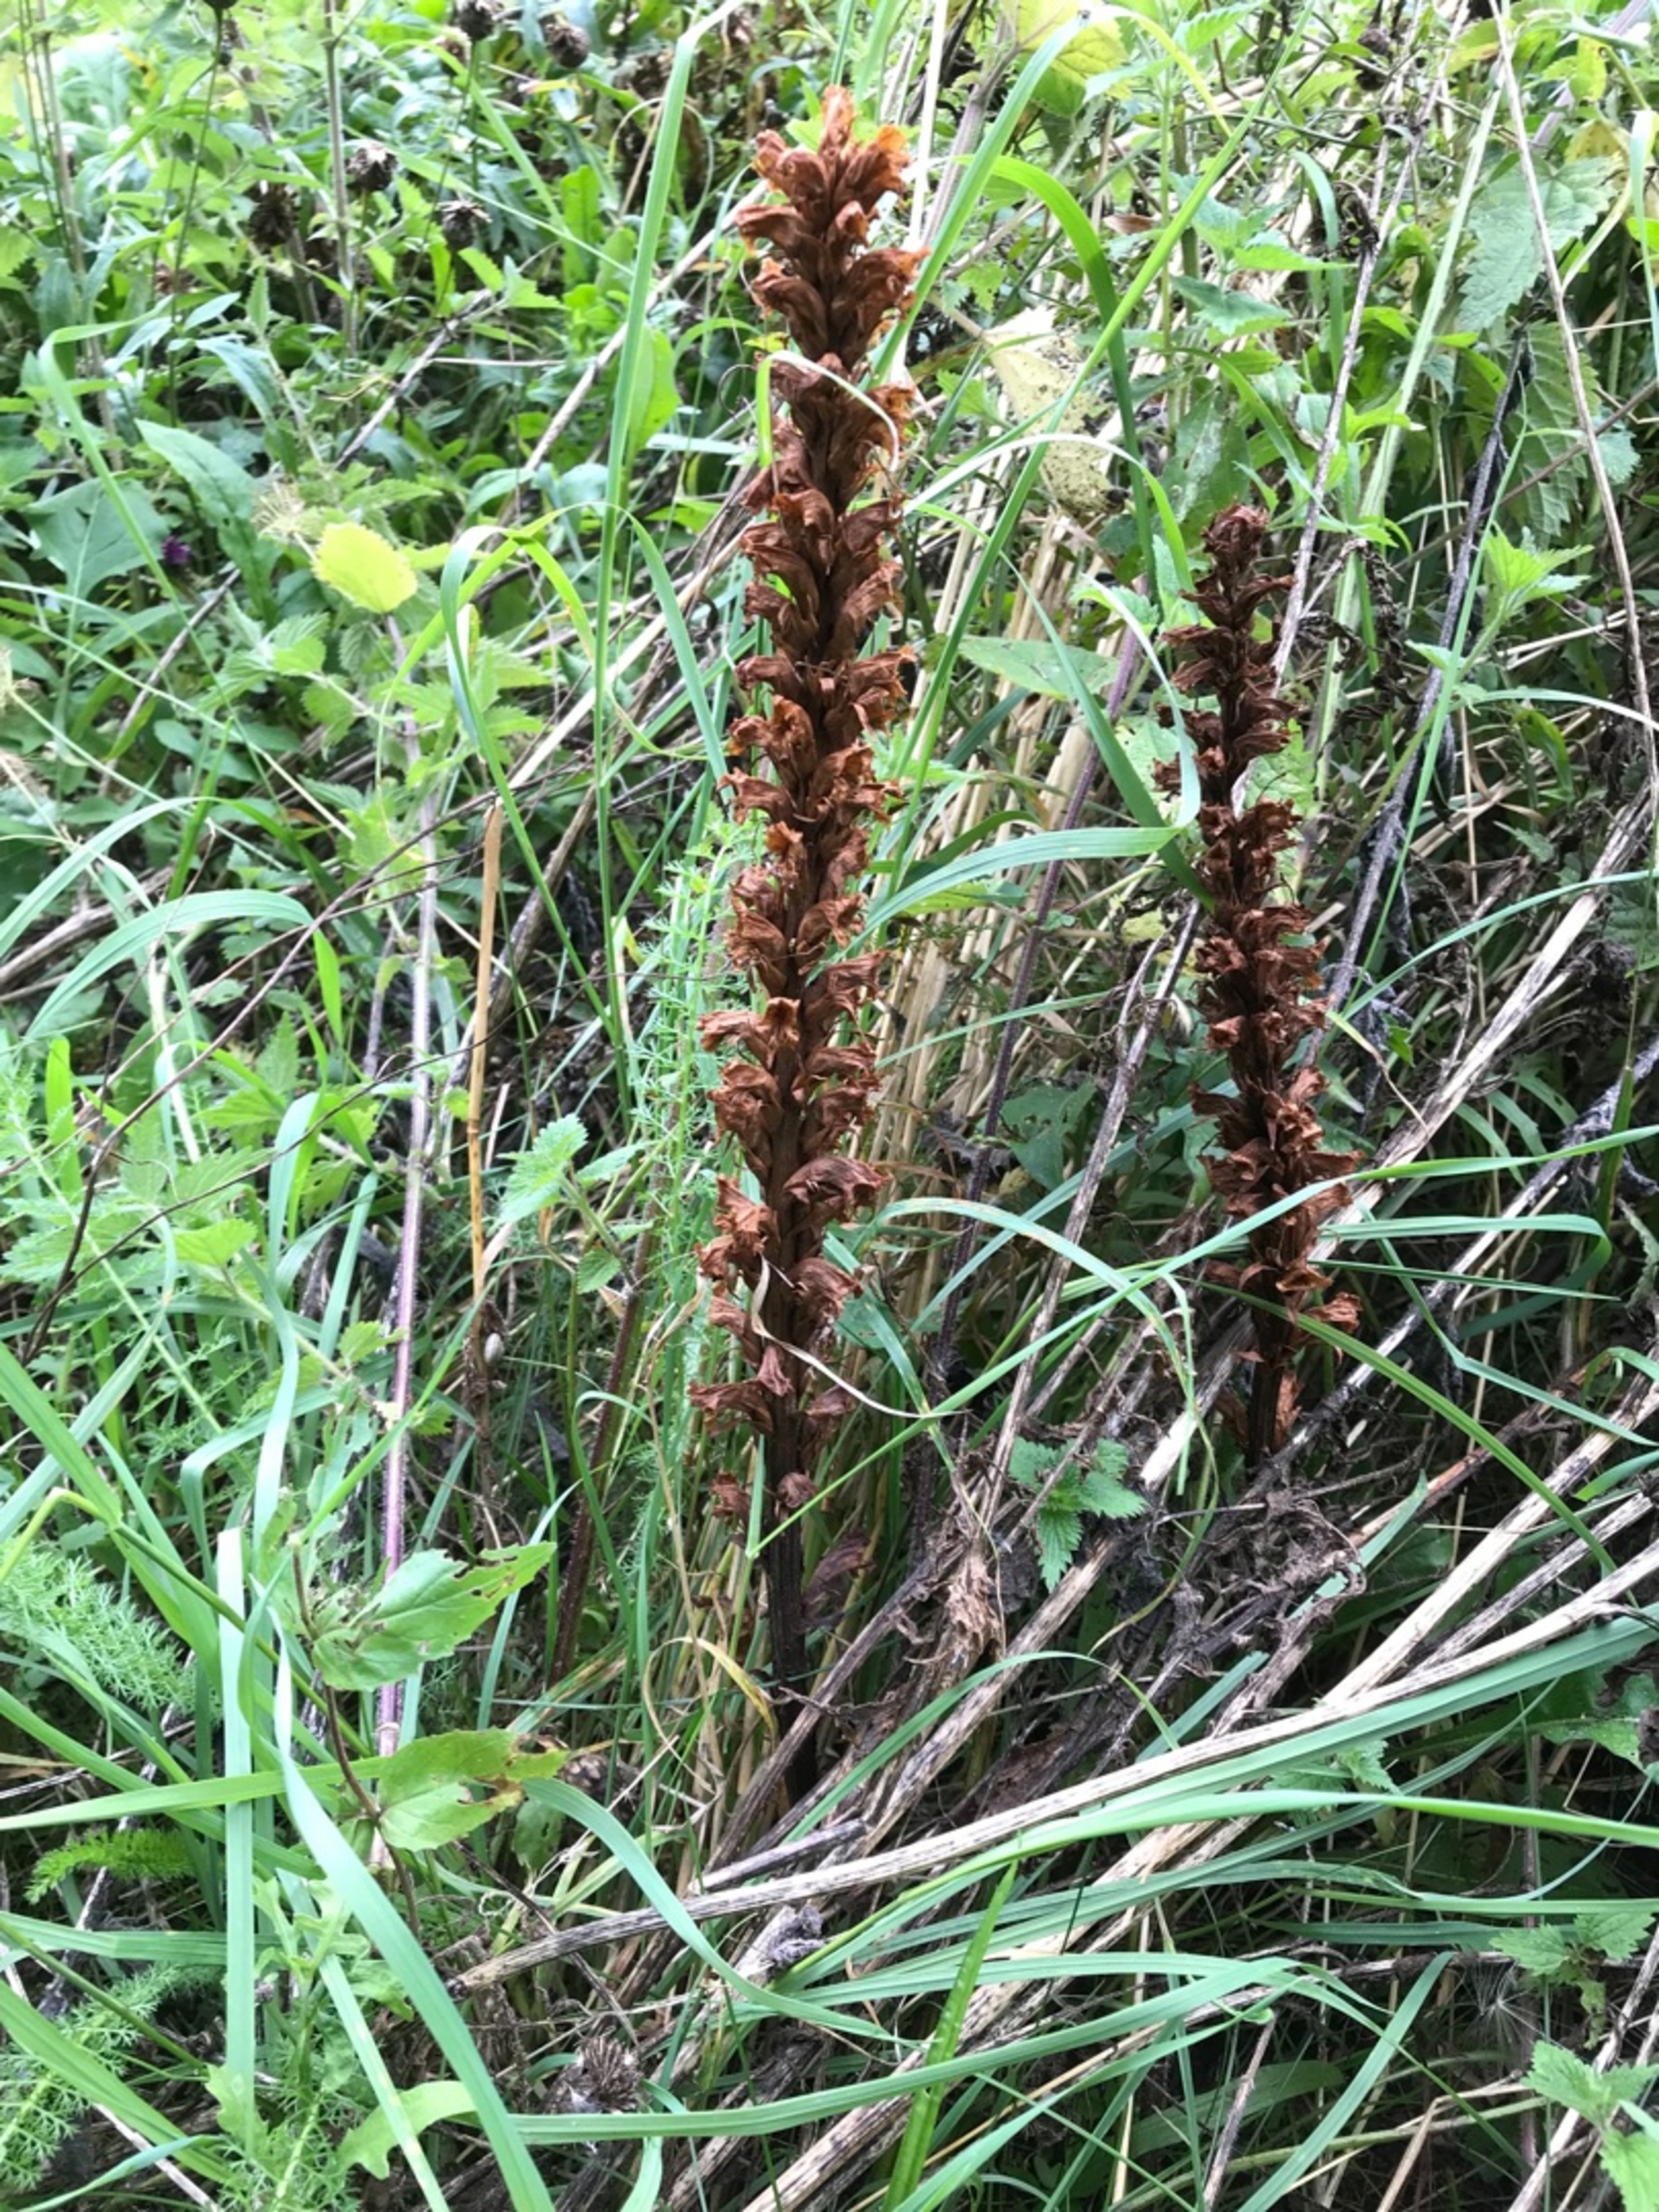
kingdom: Plantae
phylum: Tracheophyta
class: Magnoliopsida
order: Lamiales
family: Orobanchaceae
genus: Orobanche
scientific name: Orobanche elatior
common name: Stor gyvelkvæler
